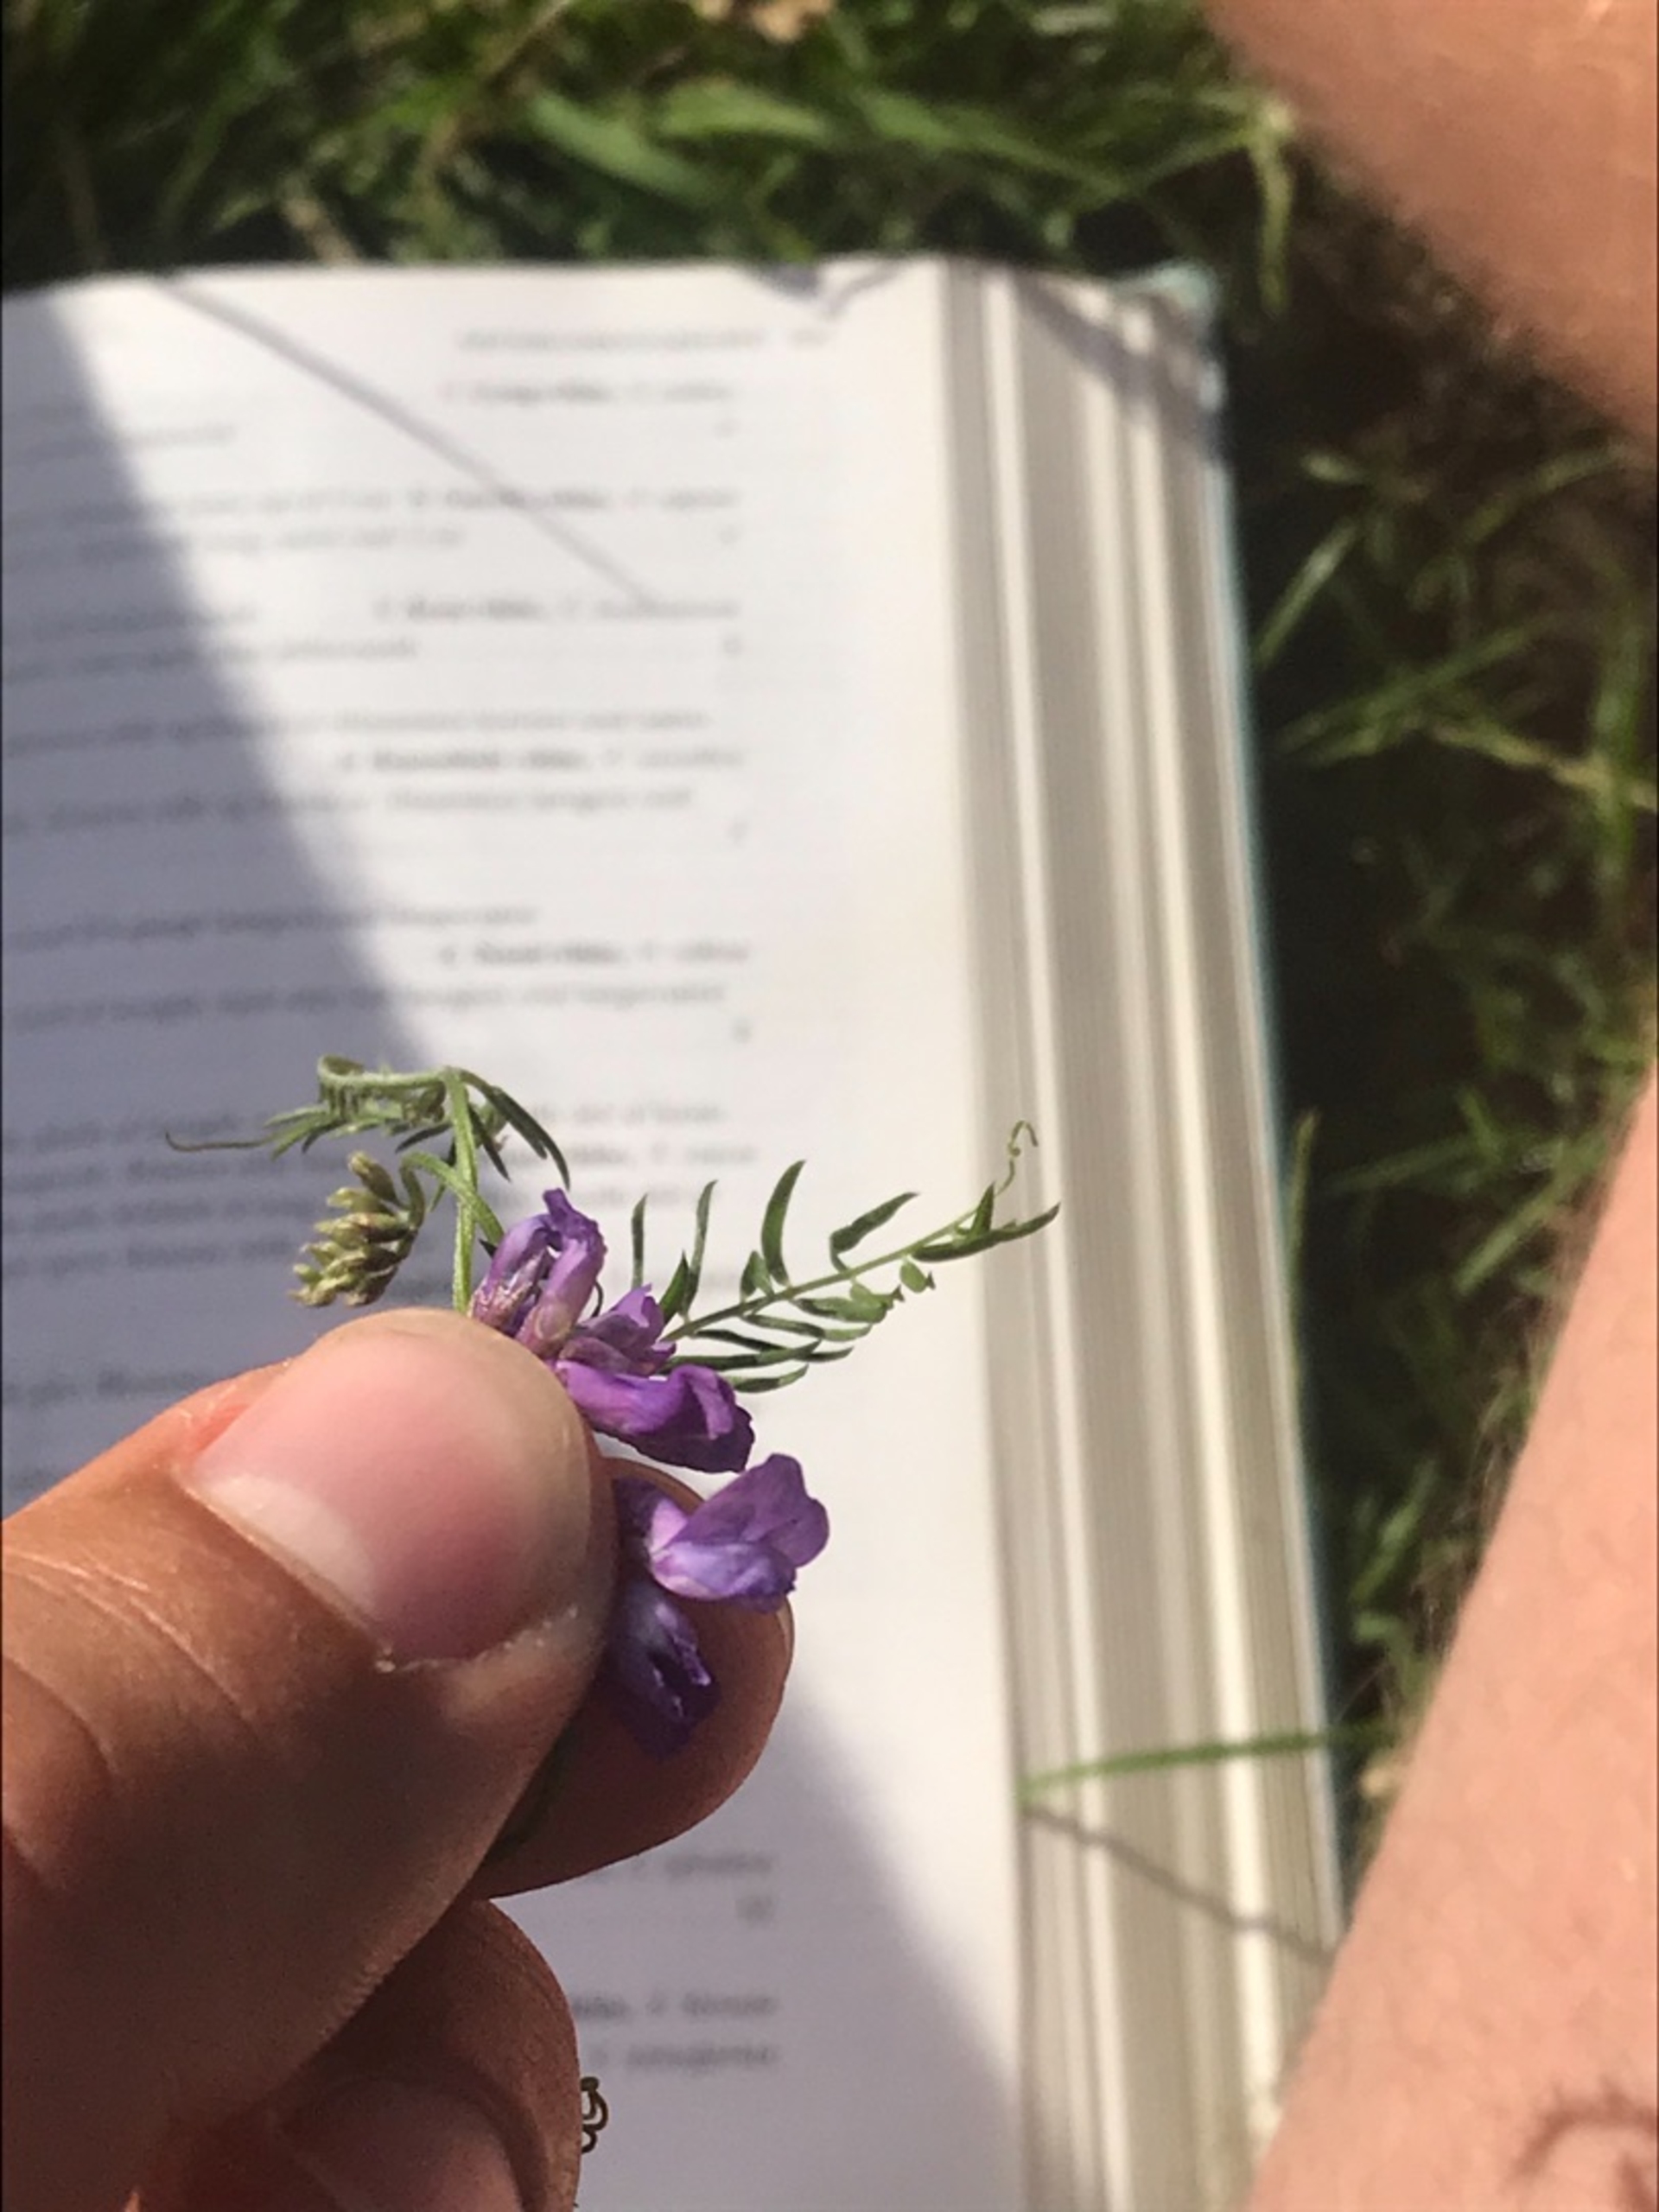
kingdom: Plantae
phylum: Tracheophyta
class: Magnoliopsida
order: Fabales
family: Fabaceae
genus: Vicia
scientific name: Vicia cracca
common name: Muse-vikke
